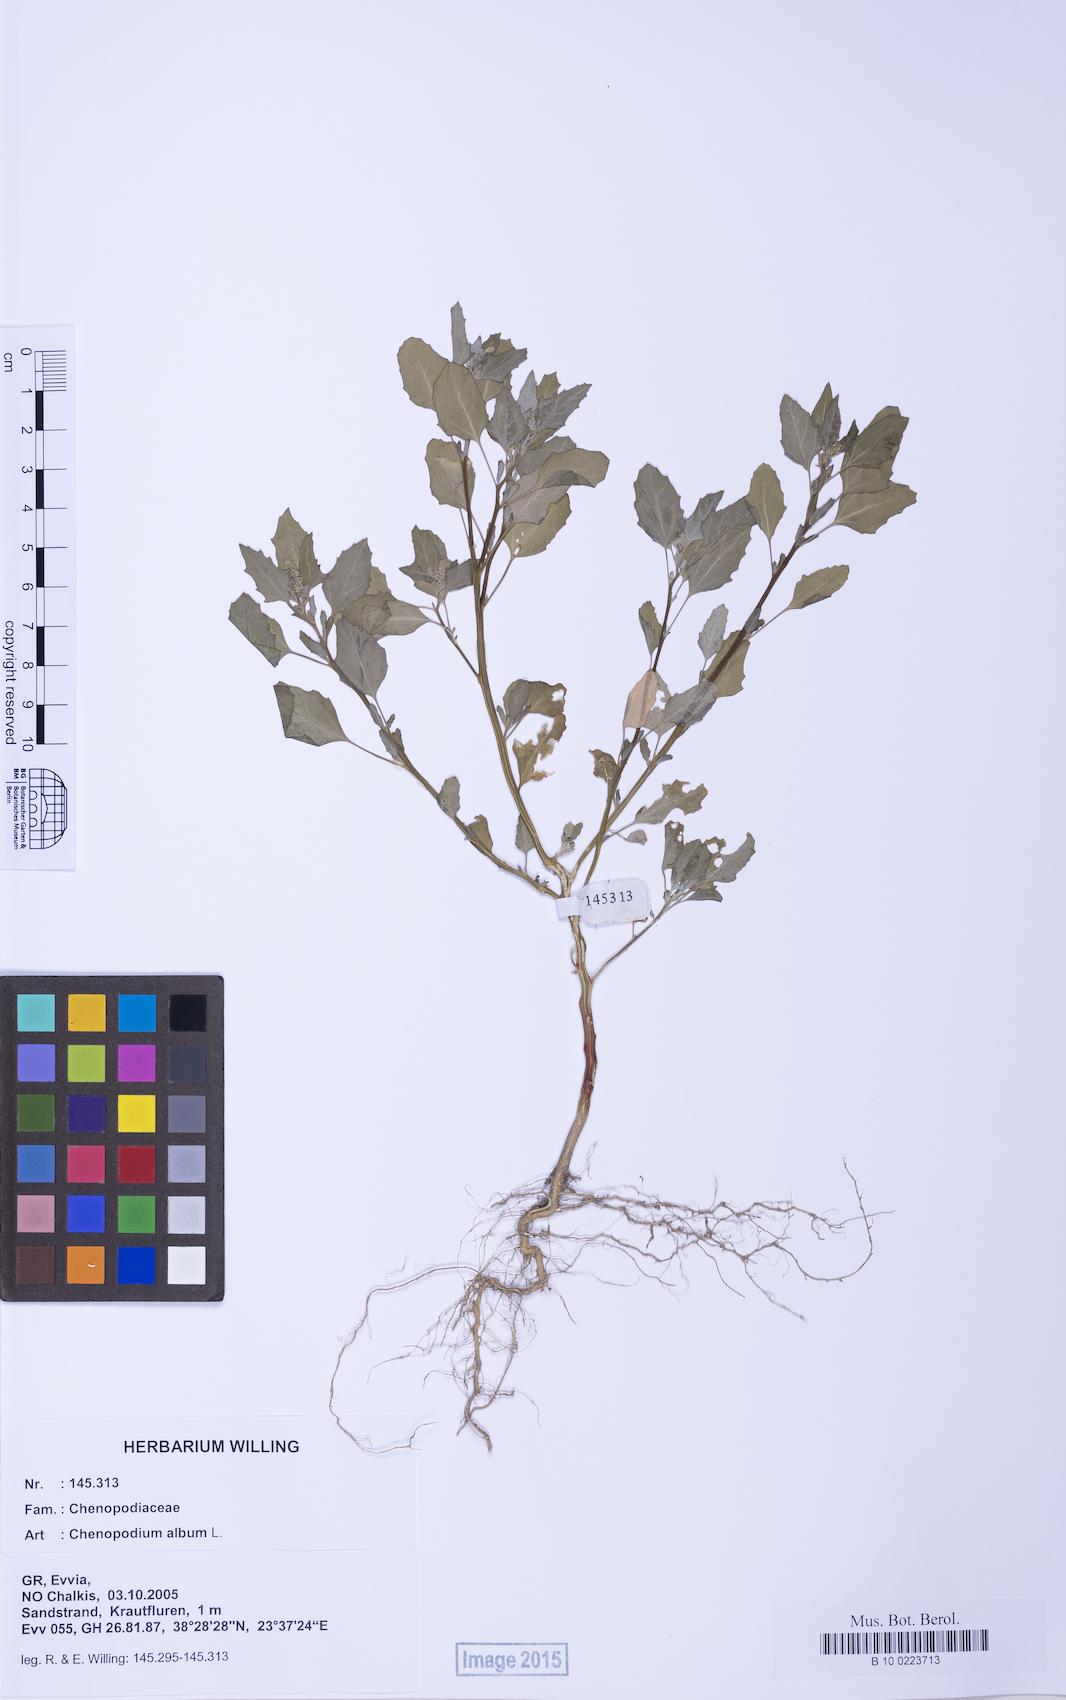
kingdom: Plantae
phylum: Tracheophyta
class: Magnoliopsida
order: Caryophyllales
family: Amaranthaceae
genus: Chenopodium
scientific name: Chenopodium album
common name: Fat-hen
